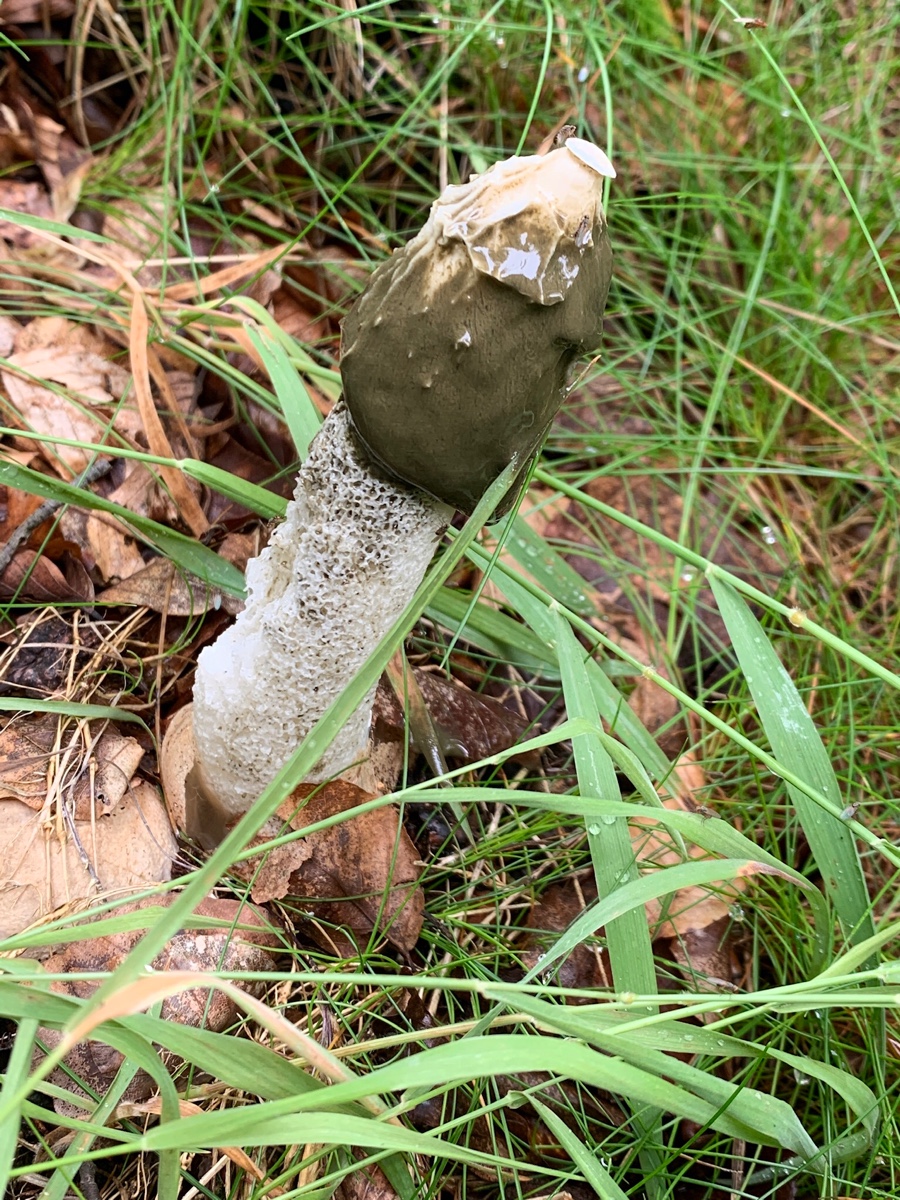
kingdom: Fungi
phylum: Basidiomycota
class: Agaricomycetes
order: Phallales
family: Phallaceae
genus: Phallus
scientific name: Phallus impudicus
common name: almindelig stinksvamp
